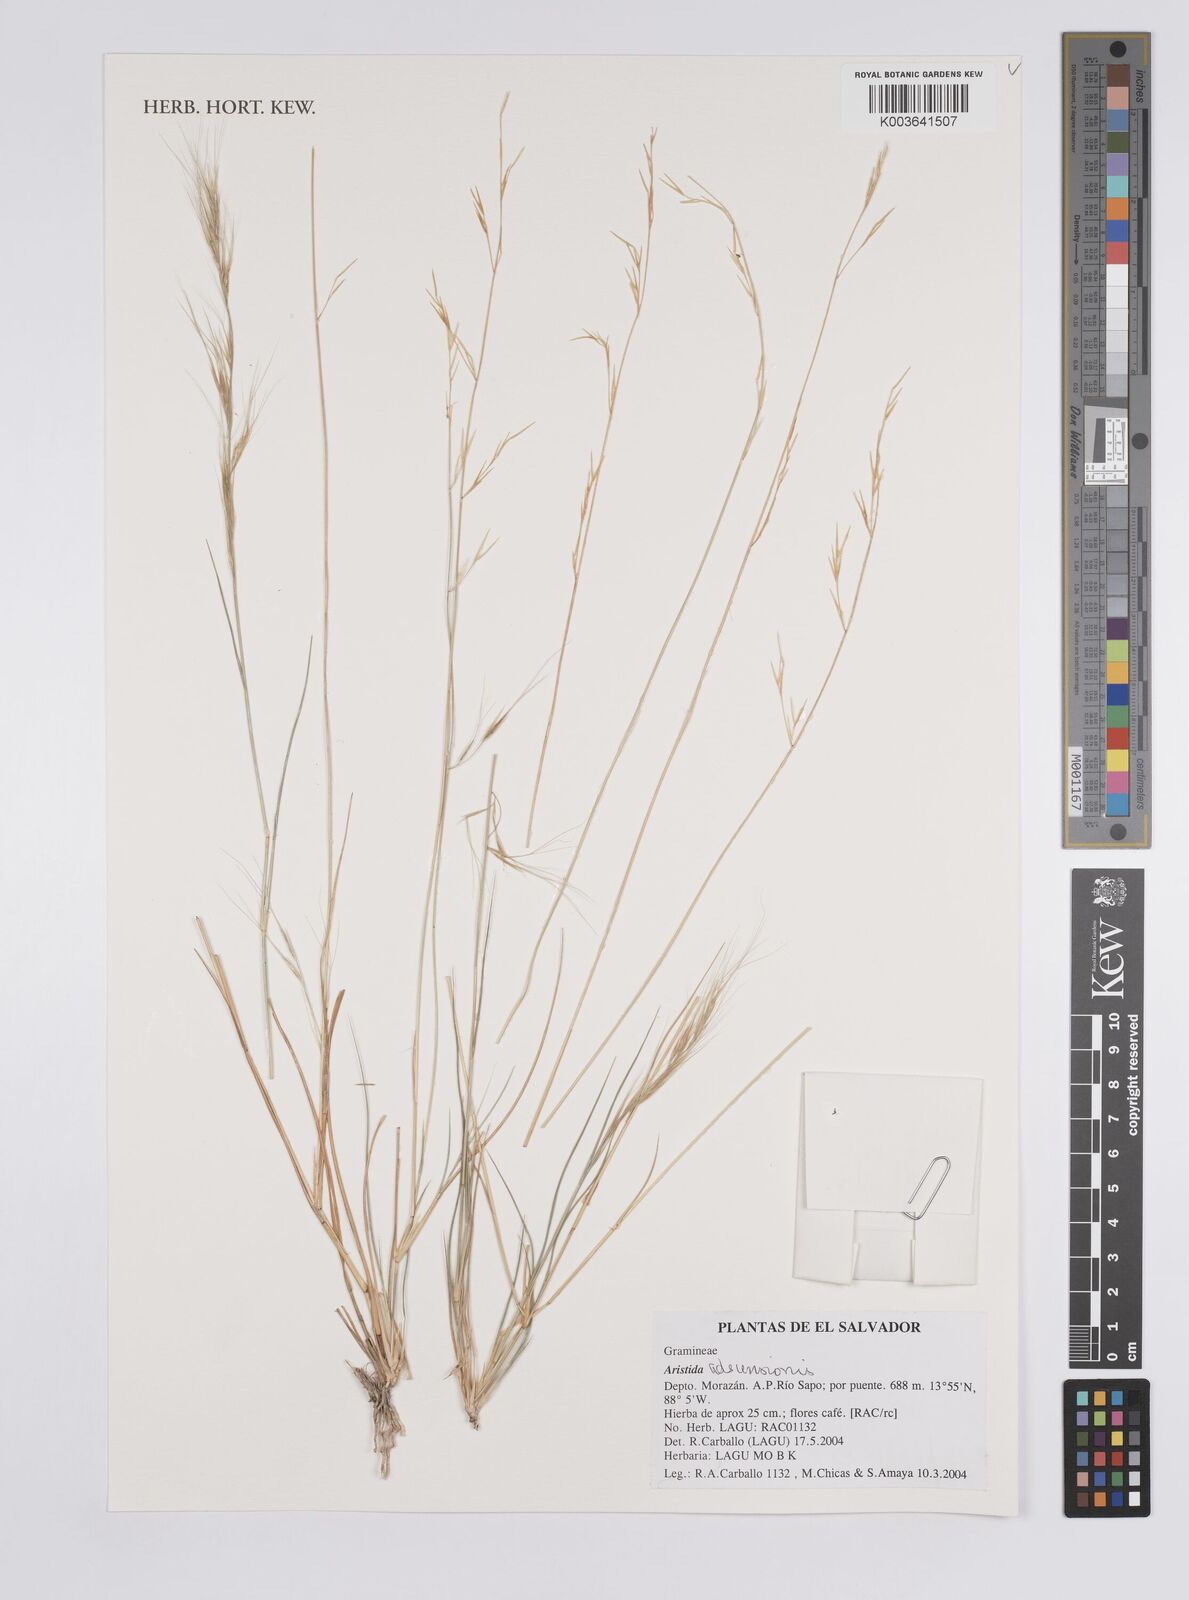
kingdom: Plantae
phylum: Tracheophyta
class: Liliopsida
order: Poales
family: Poaceae
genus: Aristida
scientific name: Aristida adscensionis
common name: Sixweeks threeawn
